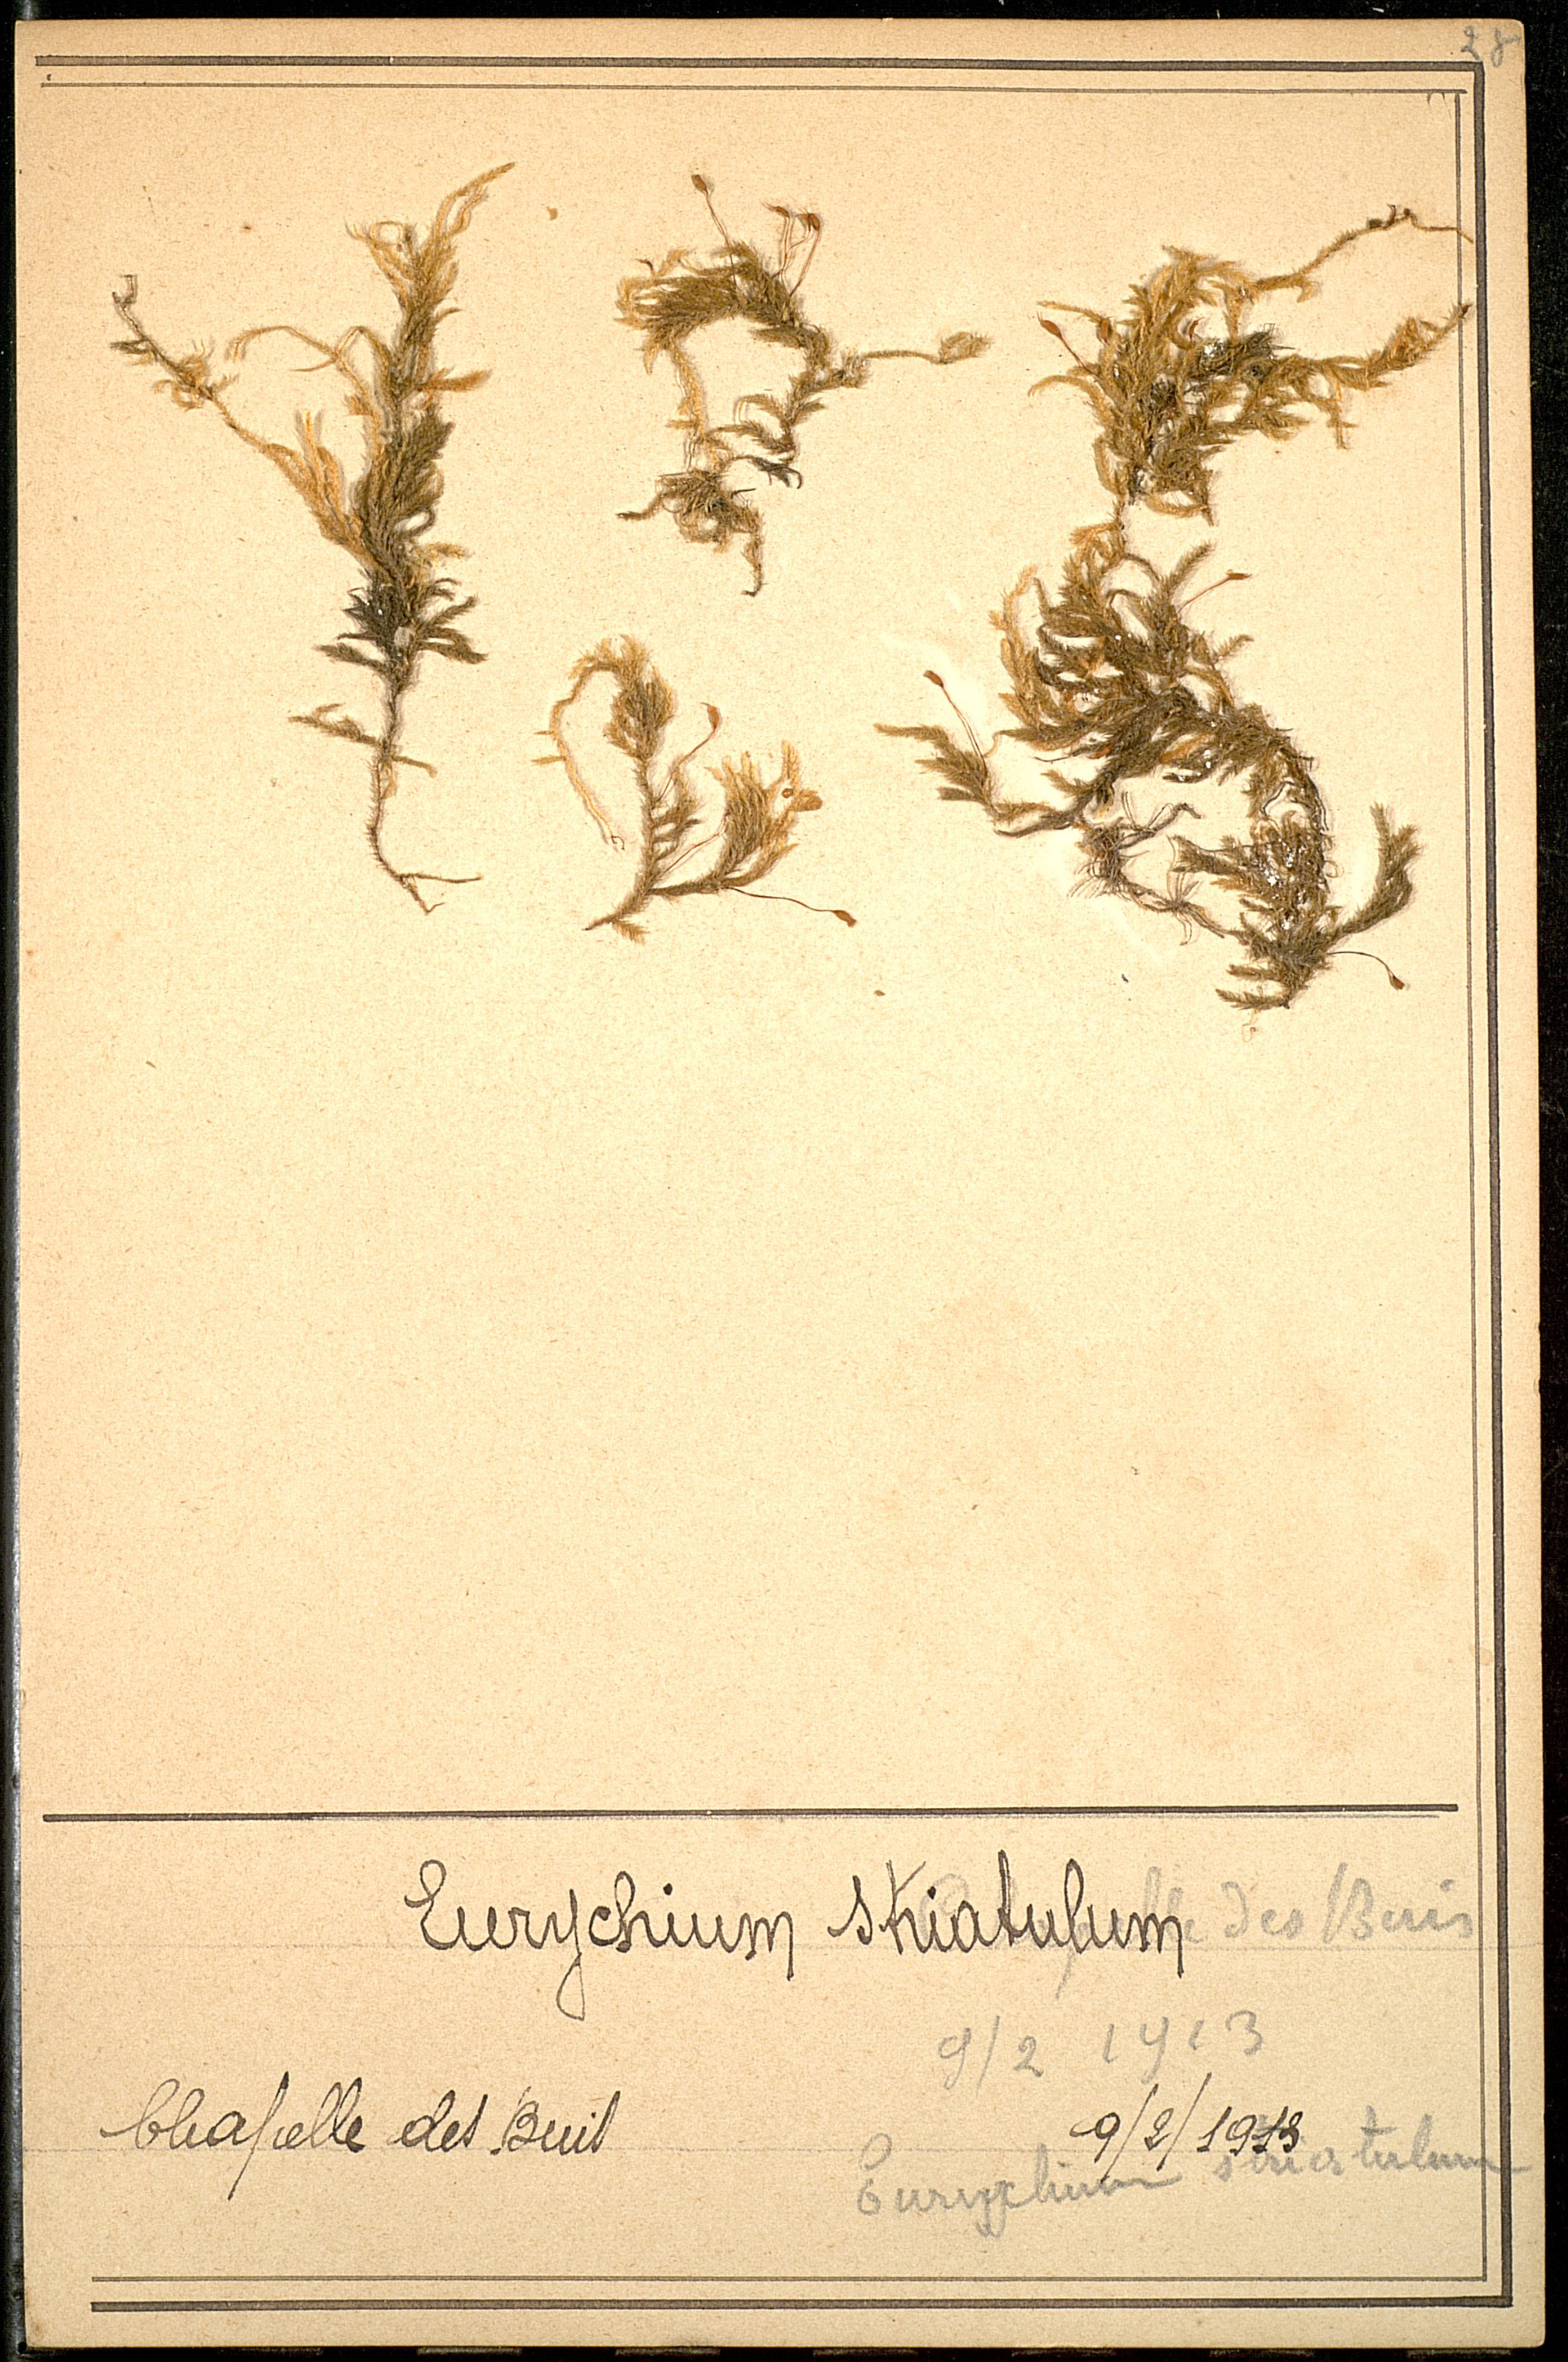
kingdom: Plantae
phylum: Bryophyta
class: Bryopsida
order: Hypnales
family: Brachytheciaceae
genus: Eurhynchium
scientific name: Eurhynchium striatum
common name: Common striated feather-moss
